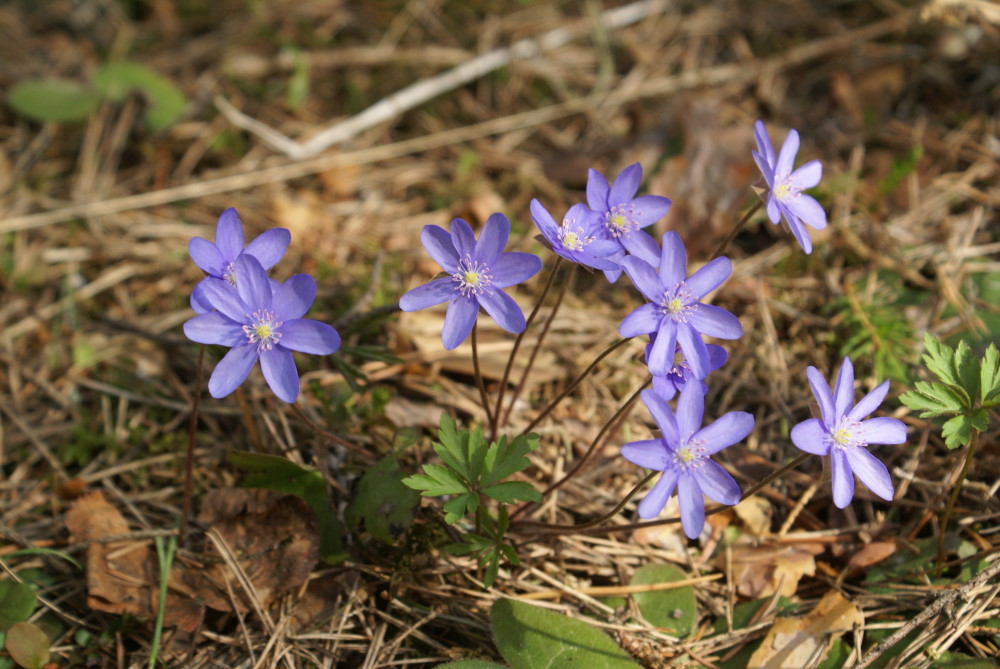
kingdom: Plantae
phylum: Tracheophyta
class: Magnoliopsida
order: Ranunculales
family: Ranunculaceae
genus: Hepatica
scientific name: Hepatica nobilis
